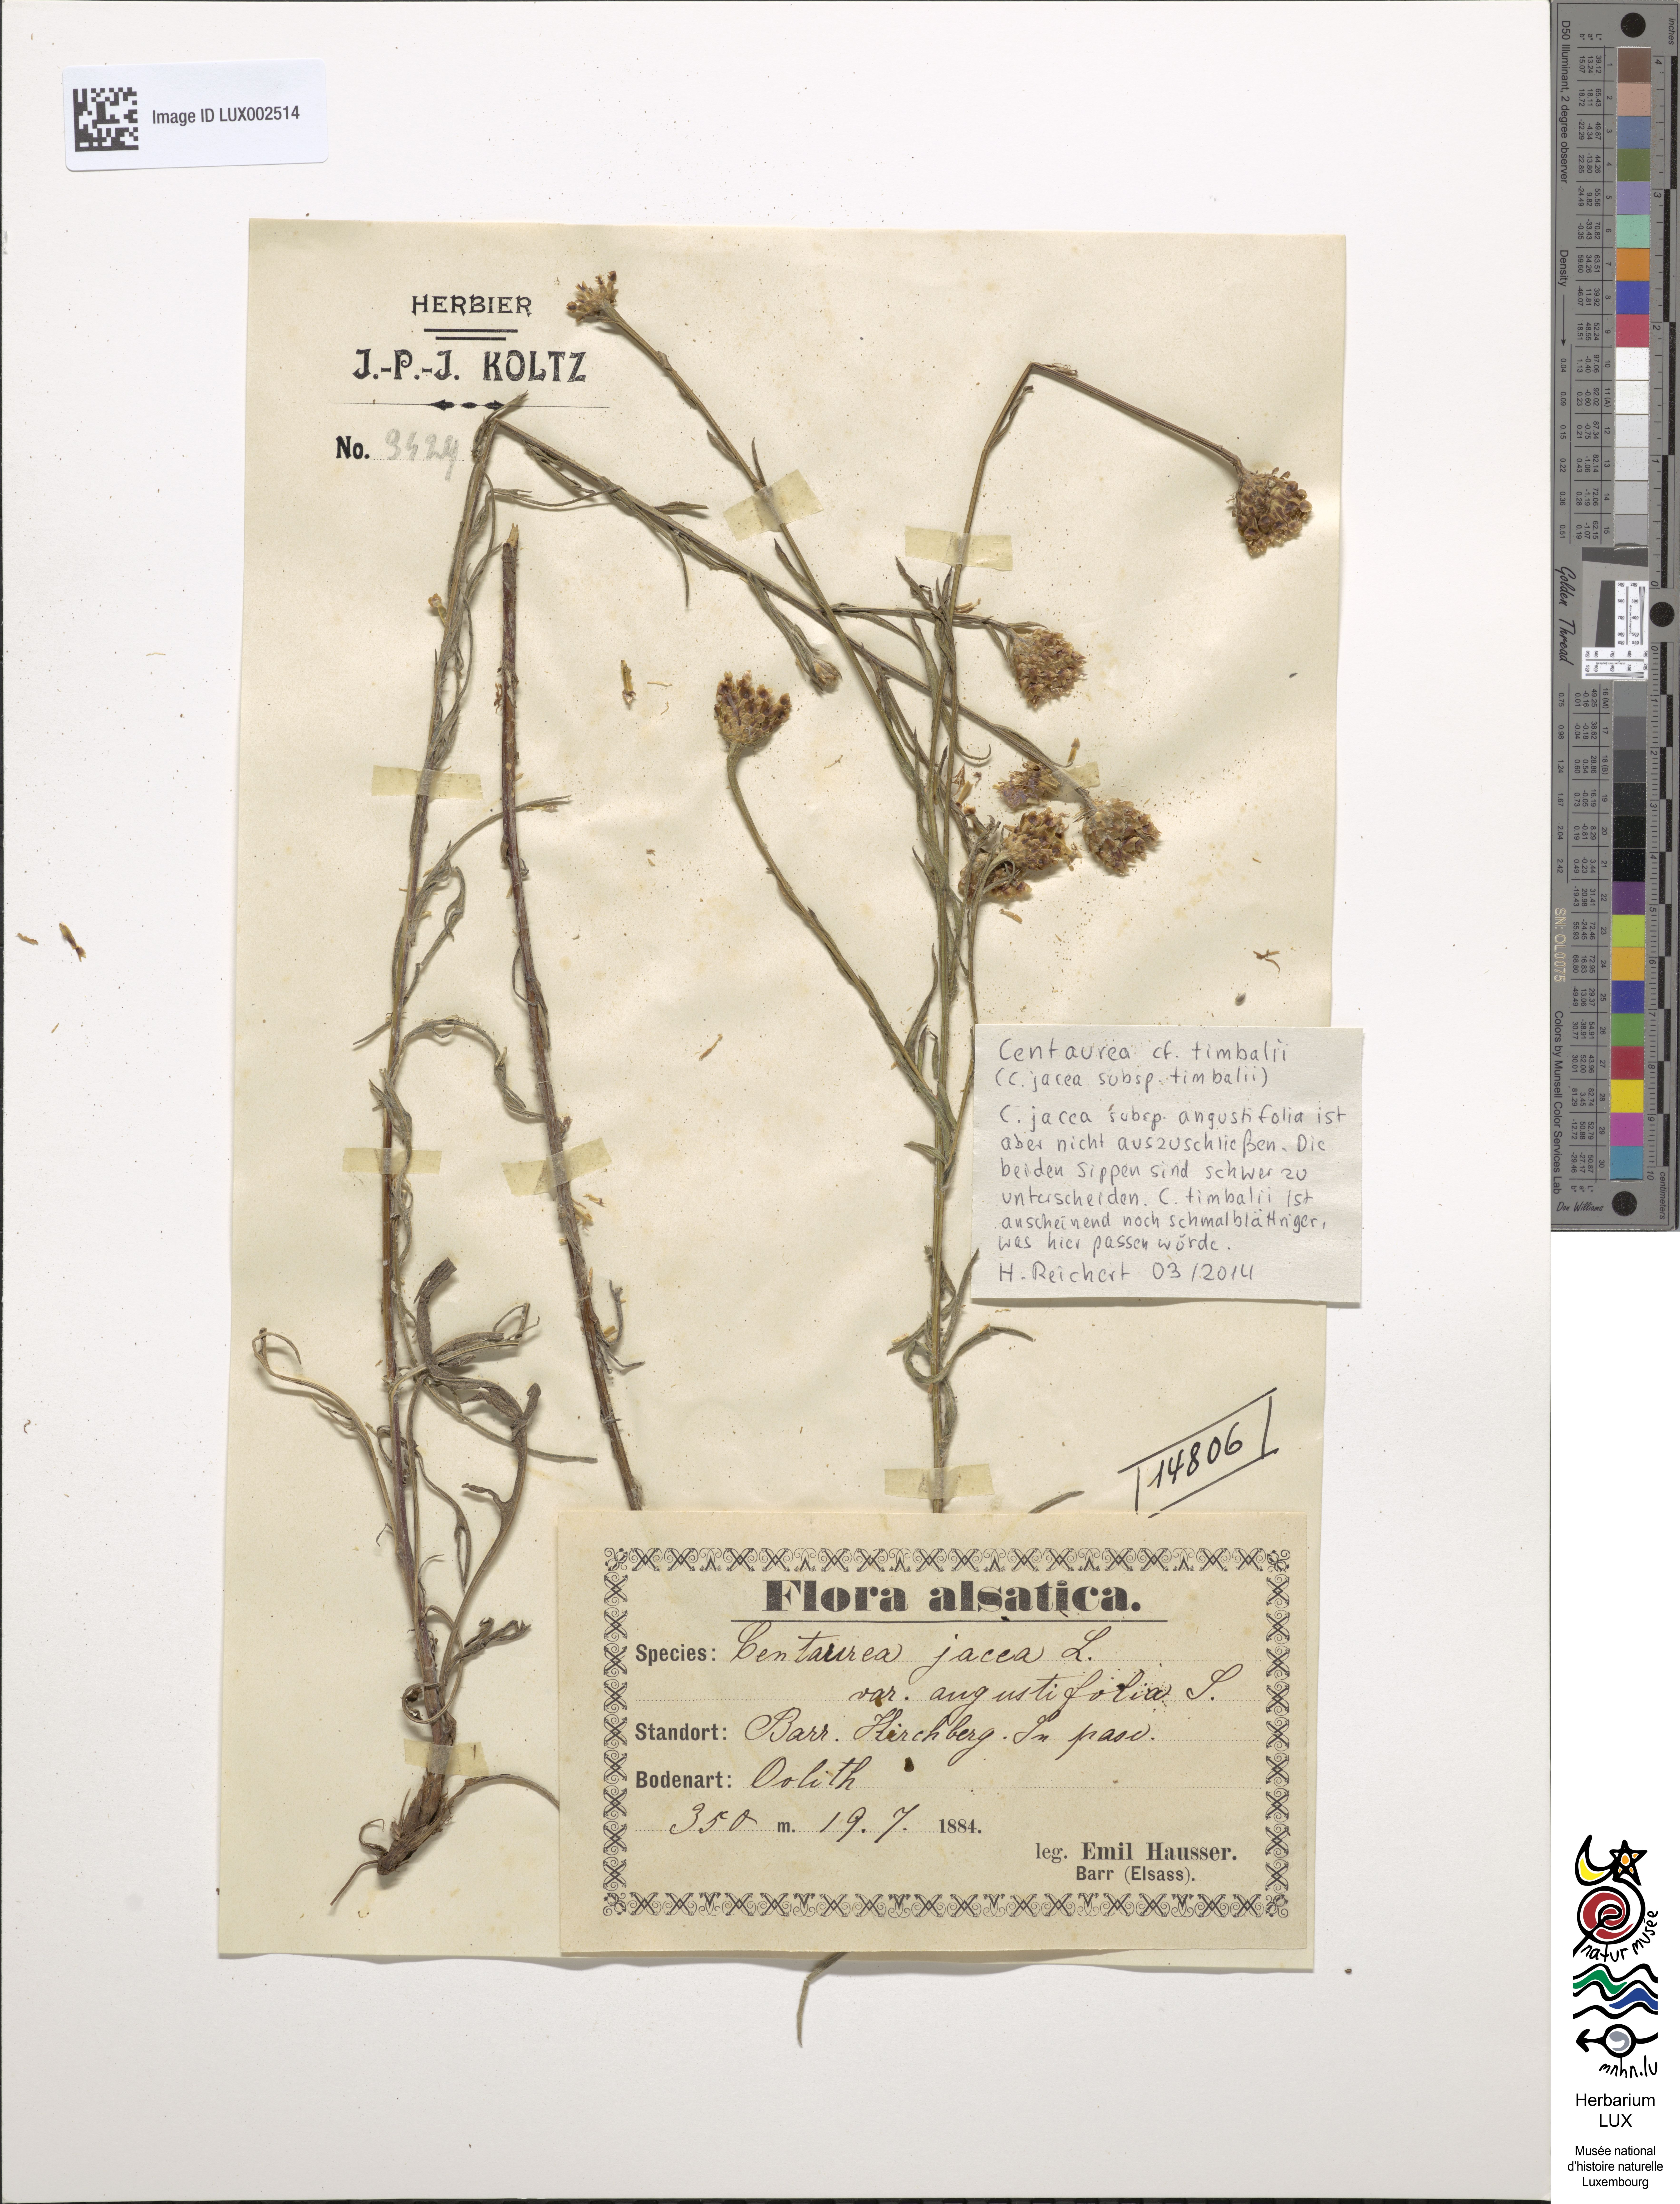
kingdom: Plantae
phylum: Tracheophyta
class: Magnoliopsida
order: Asterales
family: Asteraceae
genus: Centaurea
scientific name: Centaurea jacea
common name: Brown knapweed
